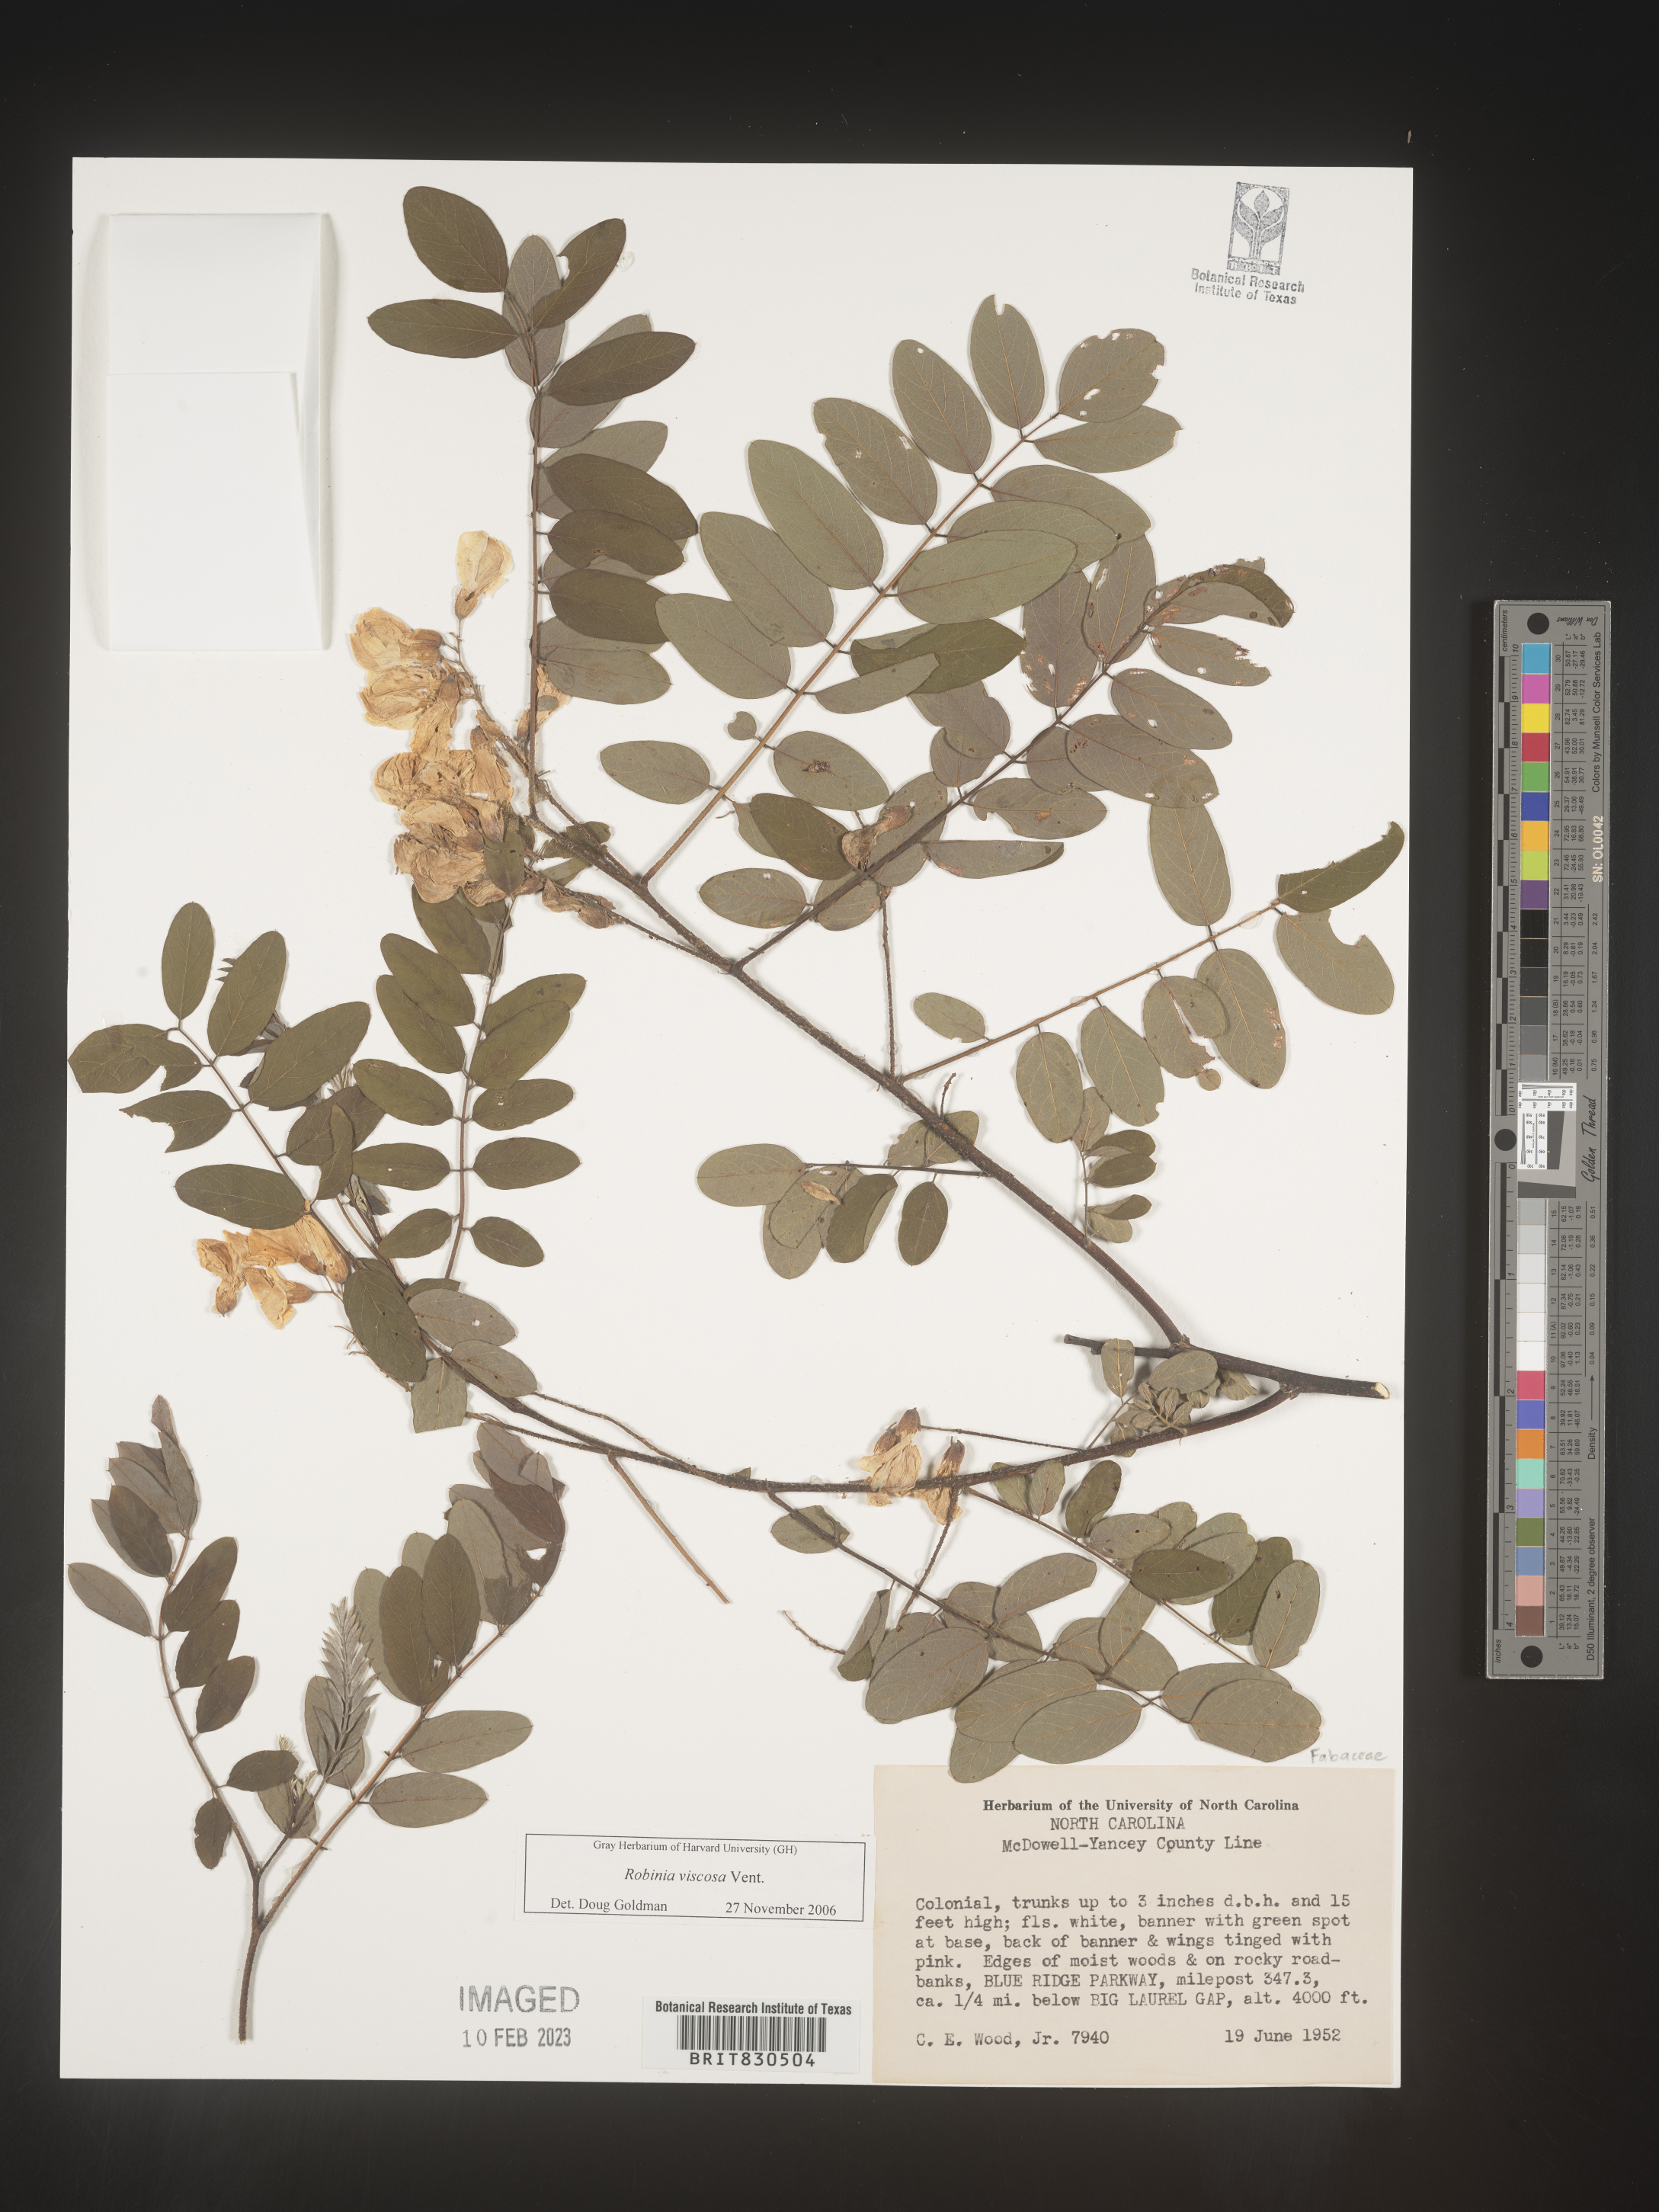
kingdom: Plantae
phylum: Tracheophyta
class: Magnoliopsida
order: Fabales
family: Fabaceae
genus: Robinia
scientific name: Robinia
